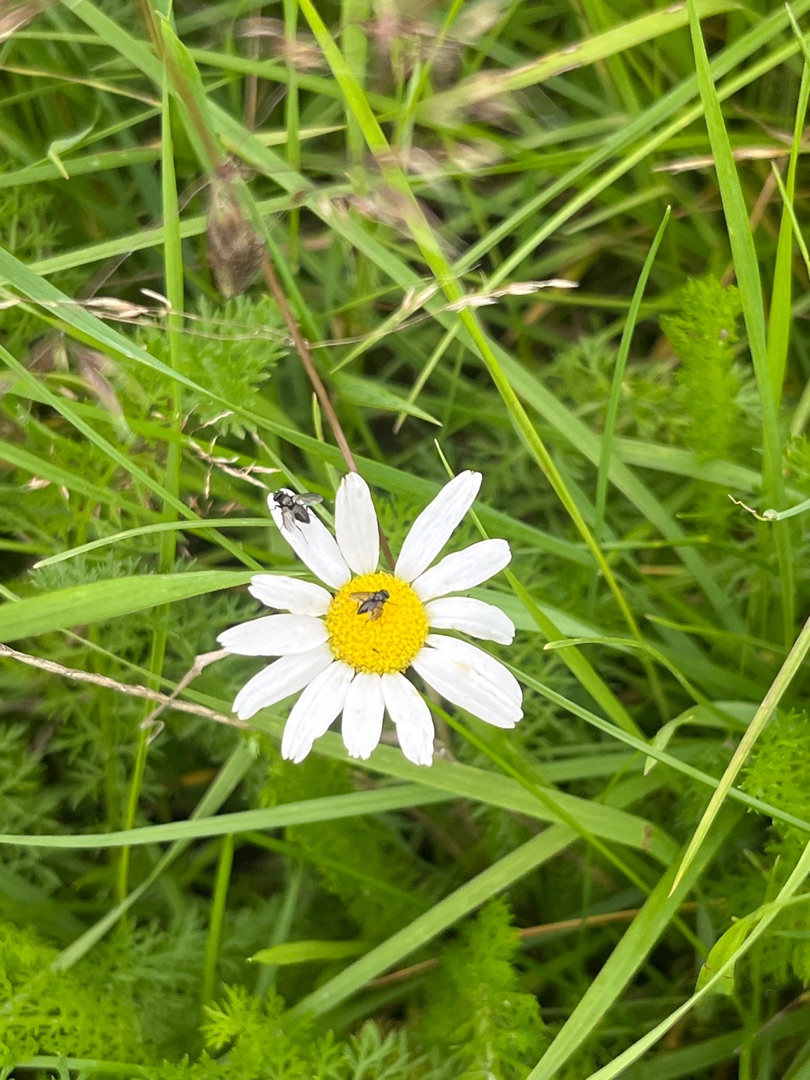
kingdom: Plantae
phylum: Tracheophyta
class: Magnoliopsida
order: Asterales
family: Asteraceae
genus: Tripleurospermum
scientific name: Tripleurospermum inodorum
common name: Lugtløs kamille
